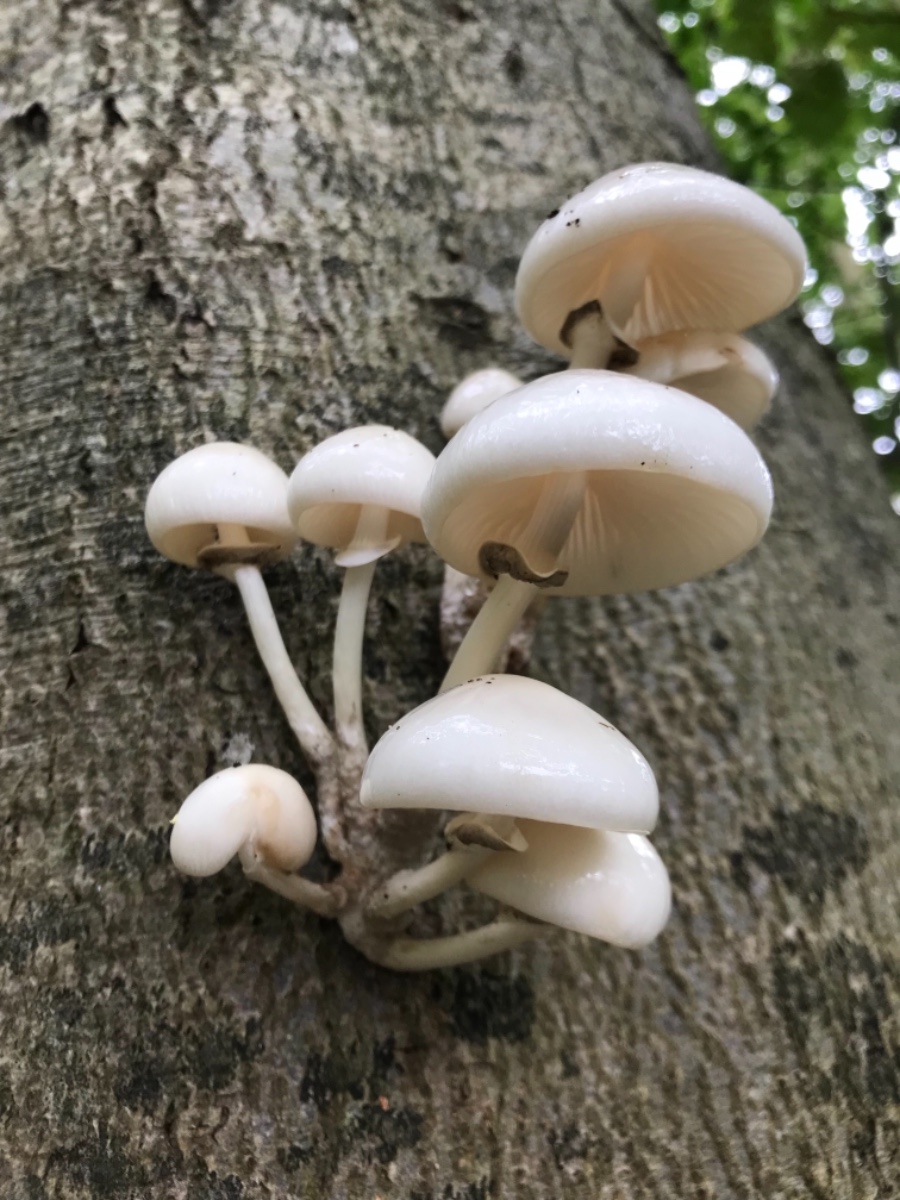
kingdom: Fungi
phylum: Basidiomycota
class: Agaricomycetes
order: Agaricales
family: Physalacriaceae
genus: Mucidula
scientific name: Mucidula mucida
